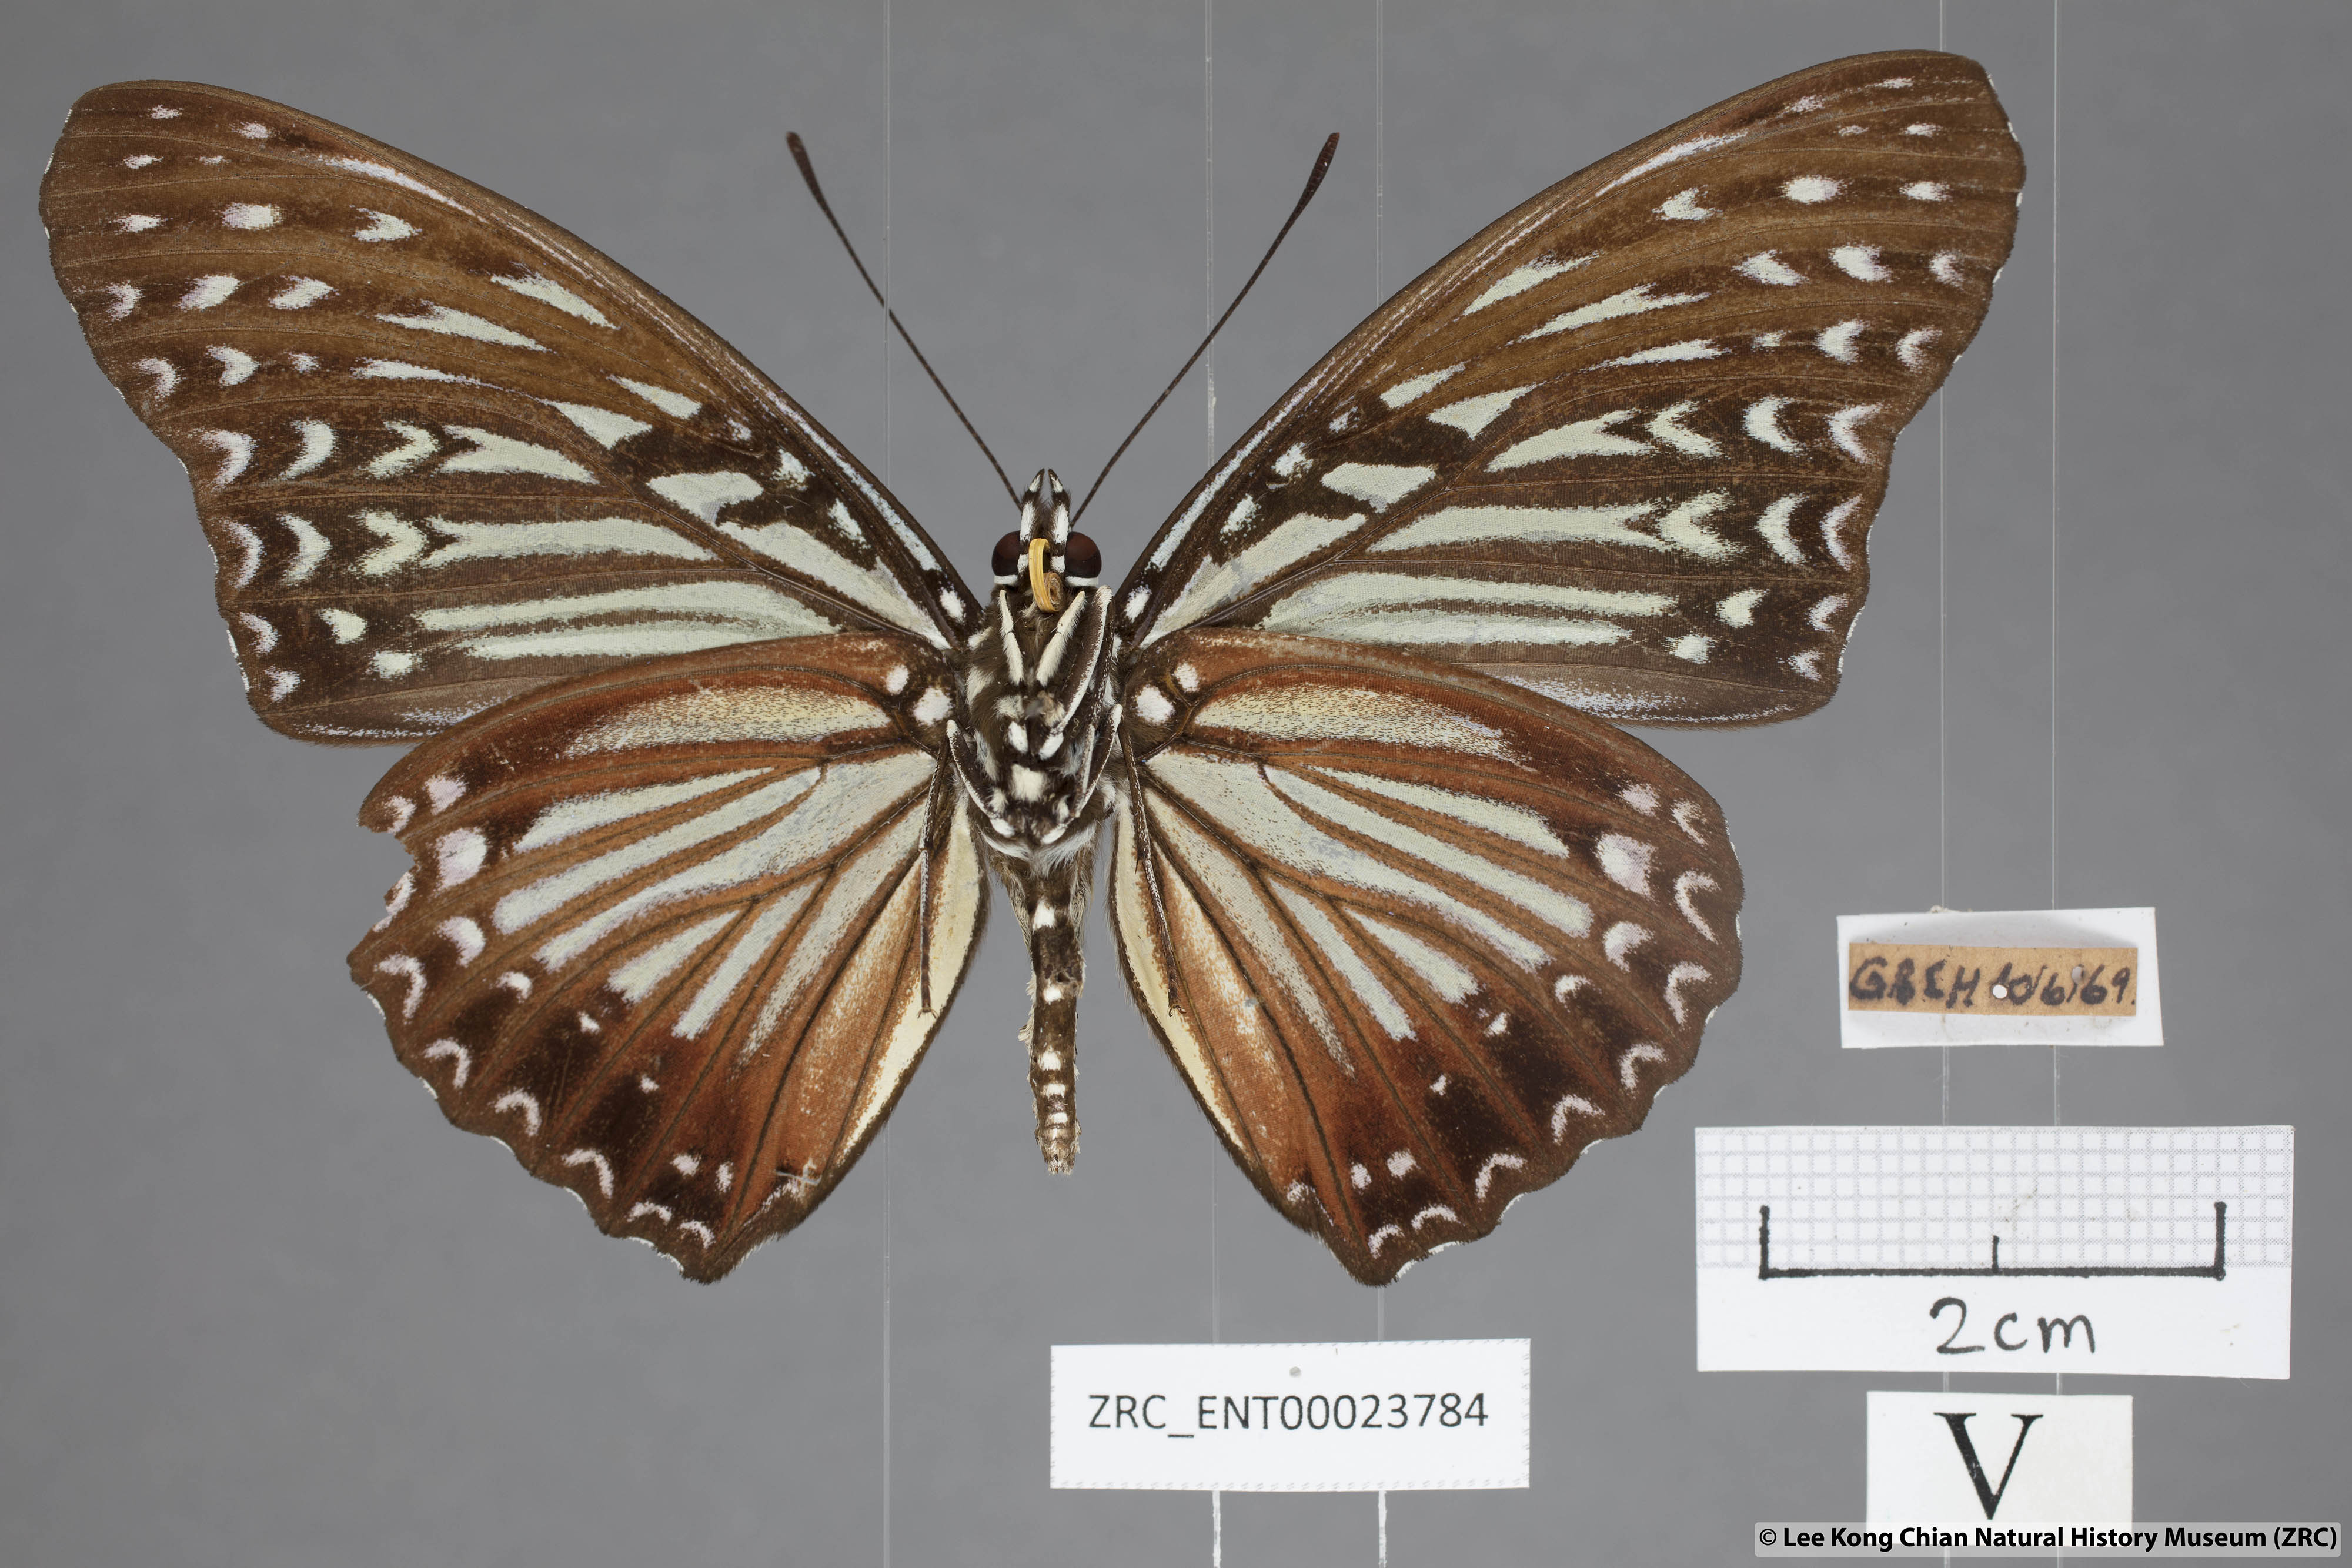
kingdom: Animalia
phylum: Arthropoda
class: Insecta
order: Lepidoptera
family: Nymphalidae
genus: Hestinalis
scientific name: Hestinalis nama
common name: Circe
